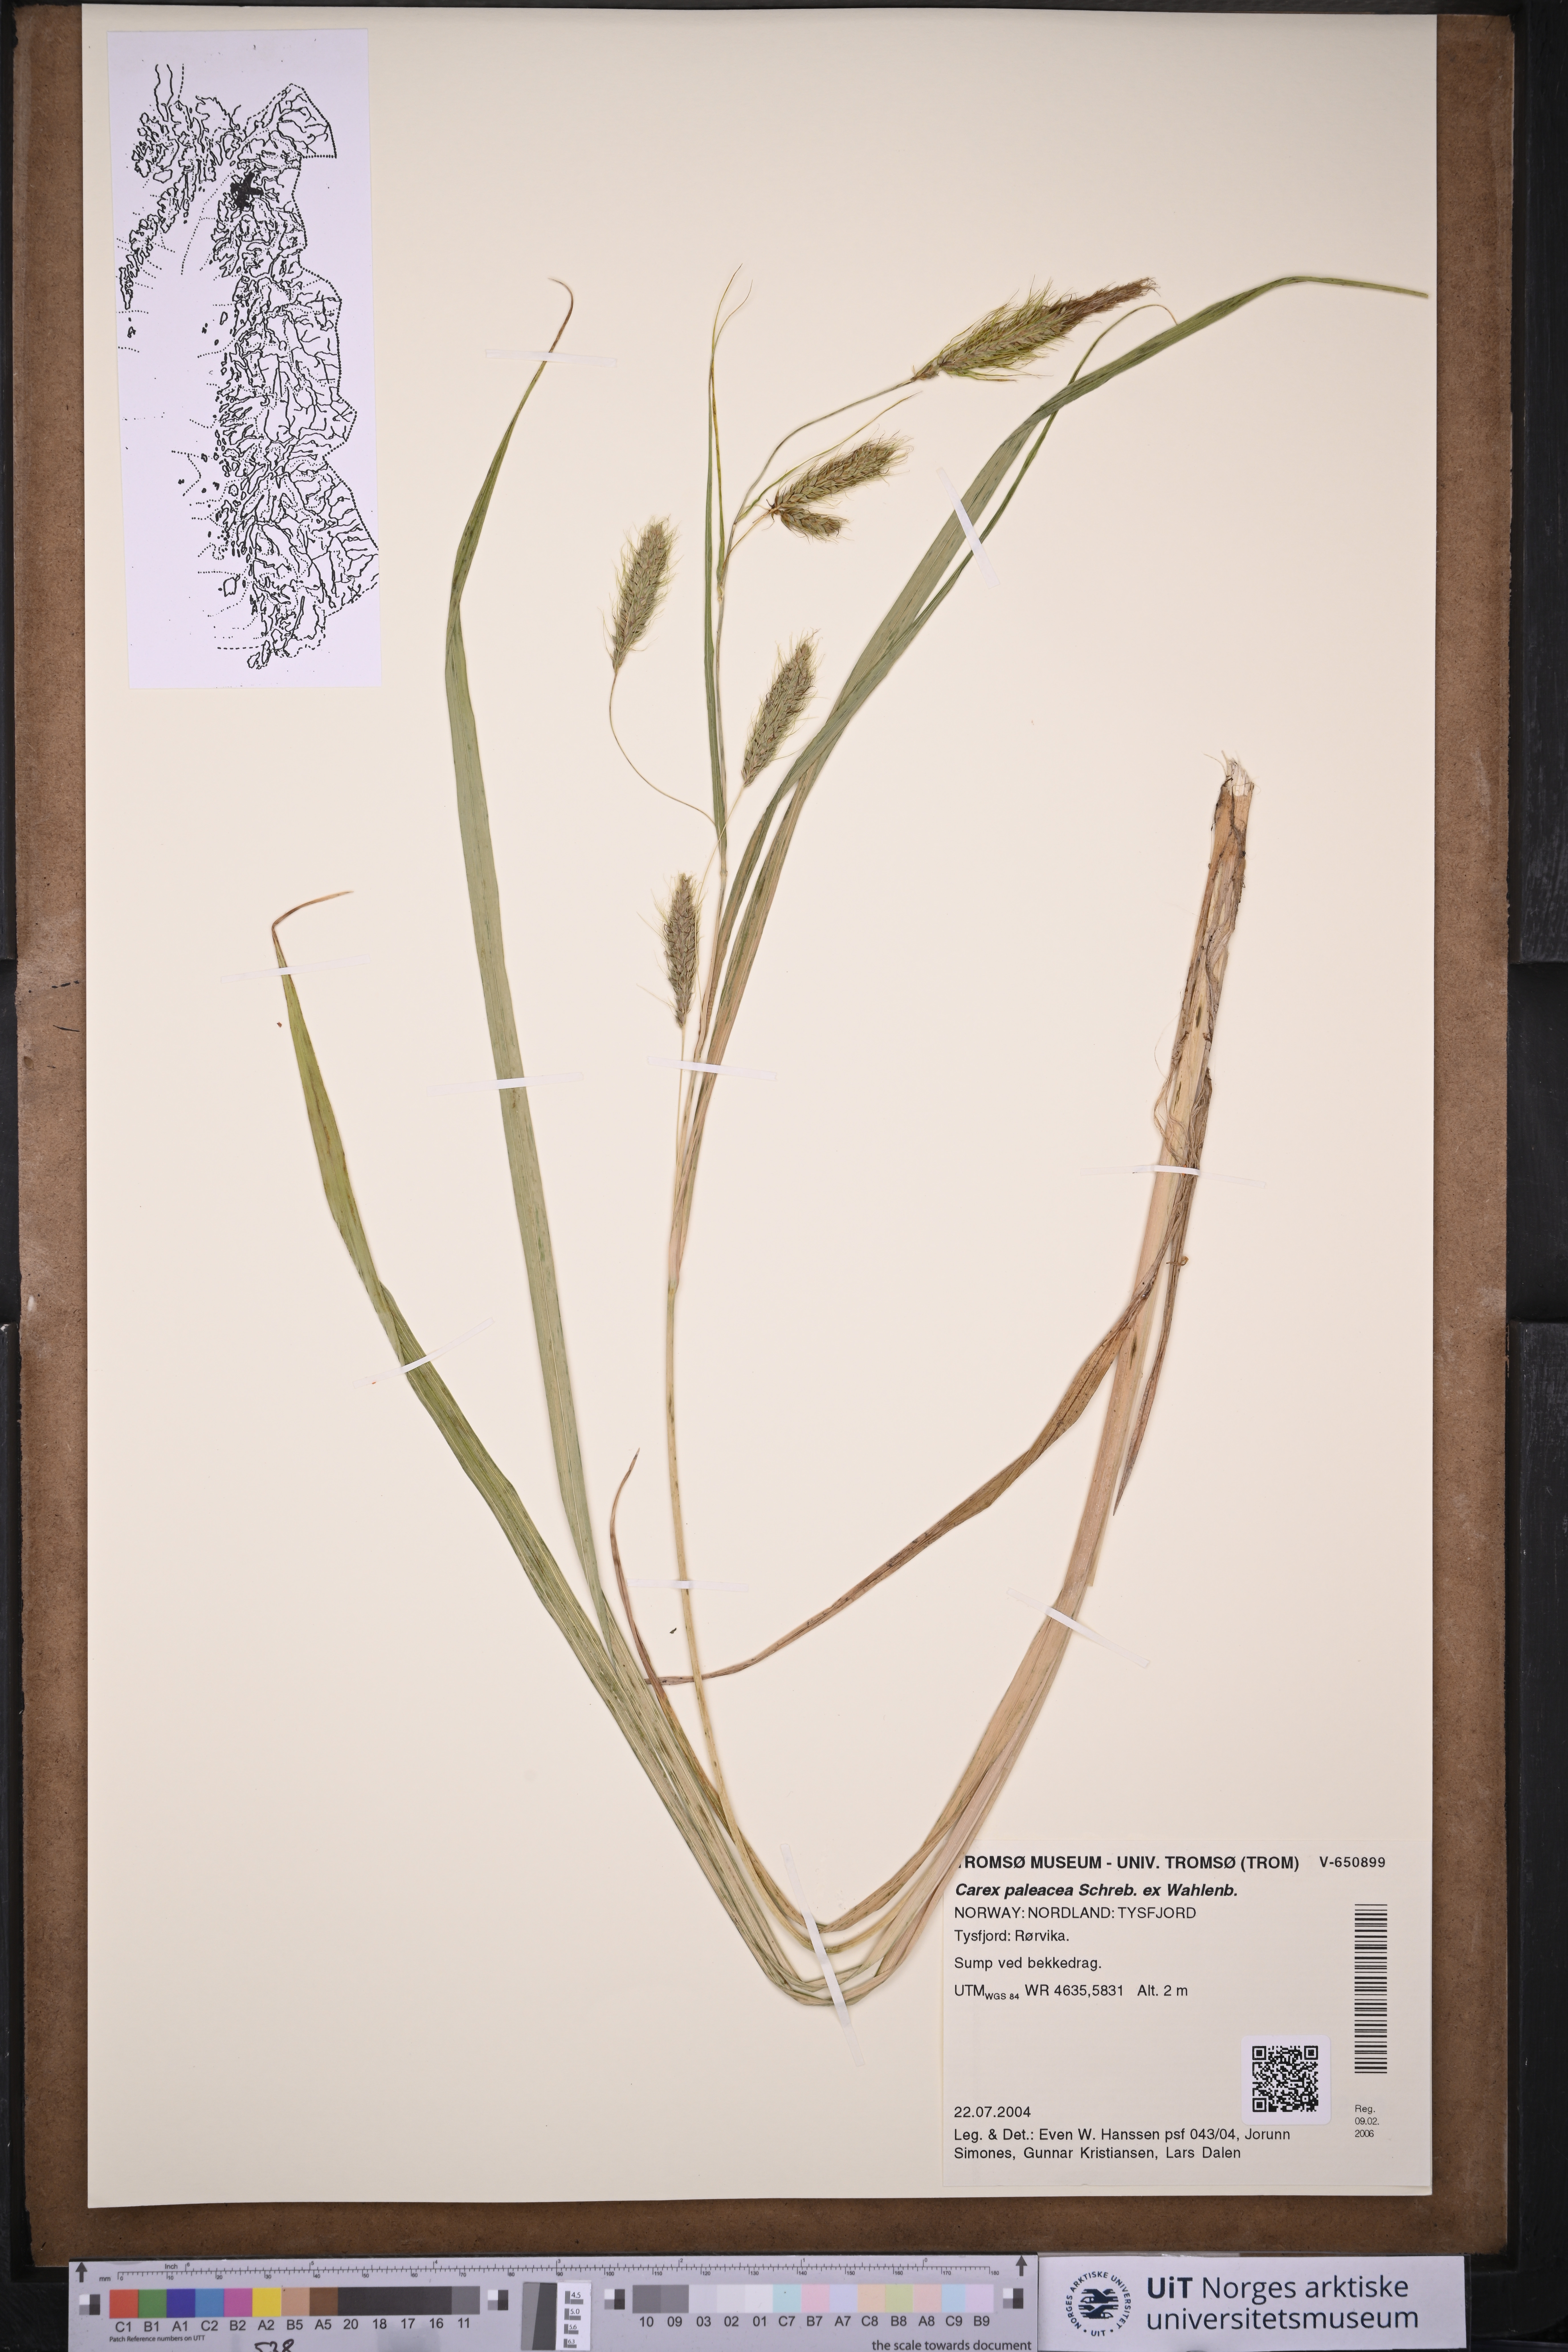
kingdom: Plantae
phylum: Tracheophyta
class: Liliopsida
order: Poales
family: Cyperaceae
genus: Carex
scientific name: Carex paleacea
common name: Chaffy sedge
